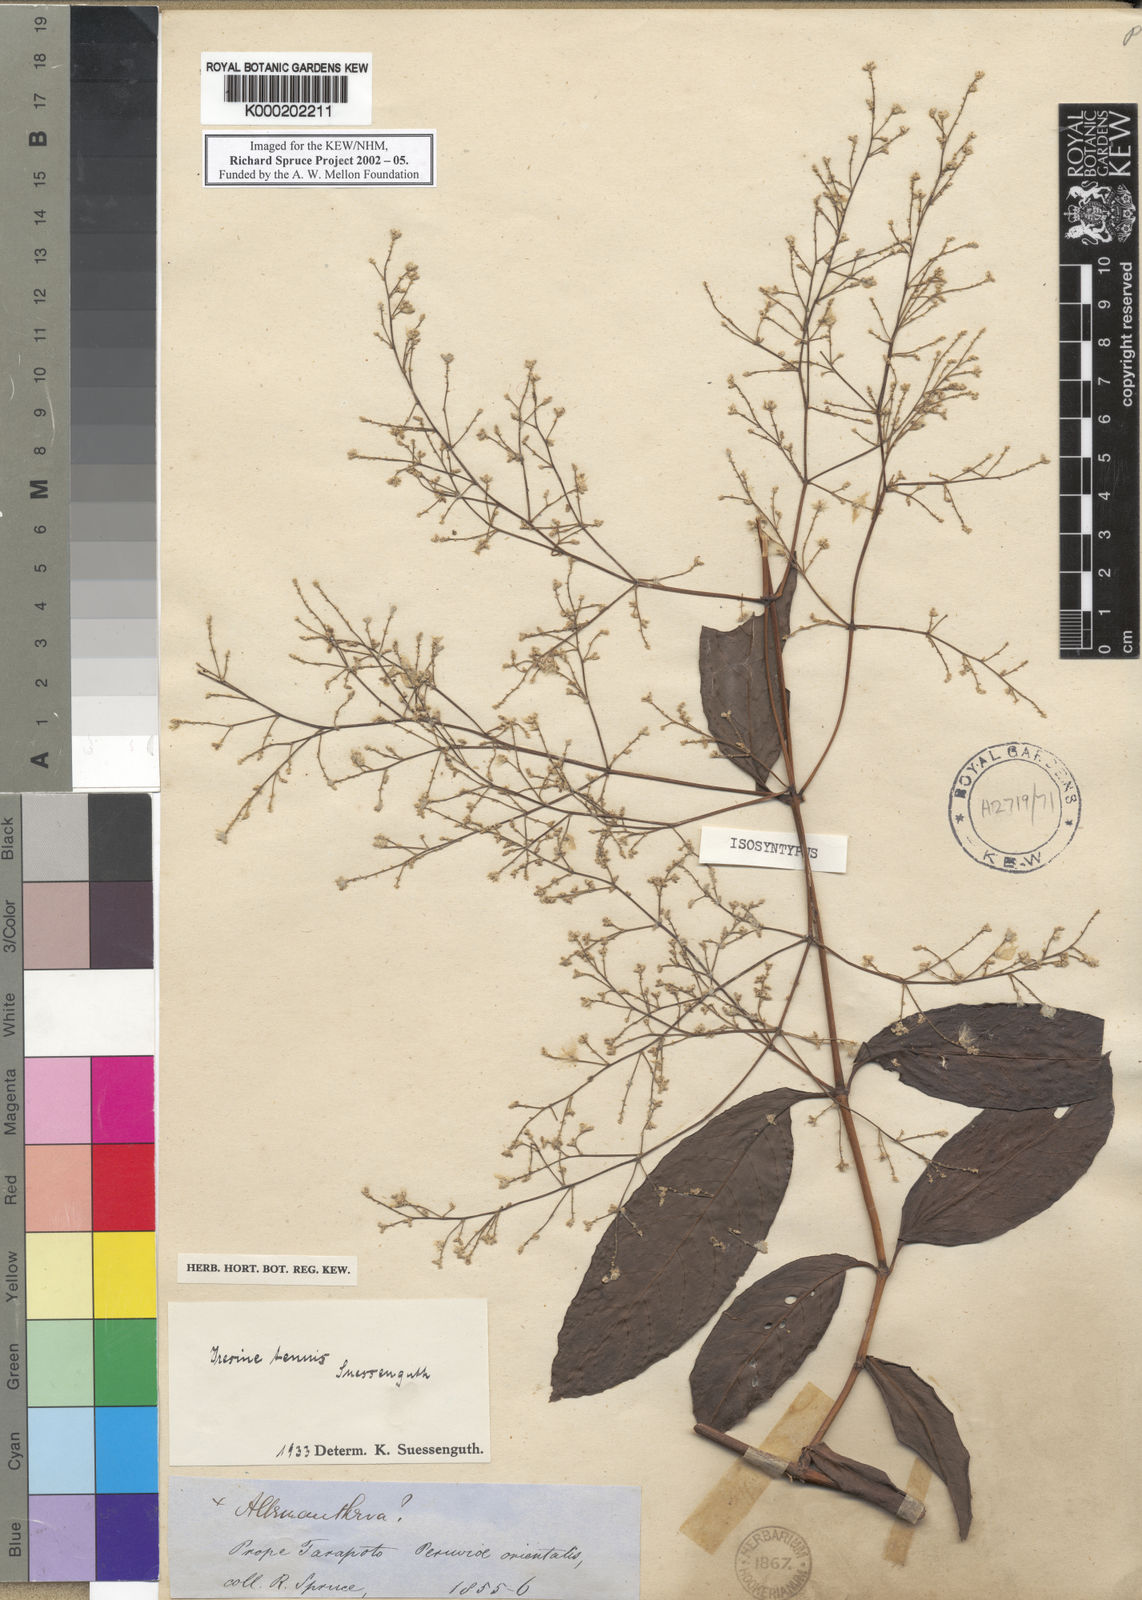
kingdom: Plantae
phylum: Tracheophyta
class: Magnoliopsida
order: Caryophyllales
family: Amaranthaceae
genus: Hebanthe
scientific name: Hebanthe erianthos
